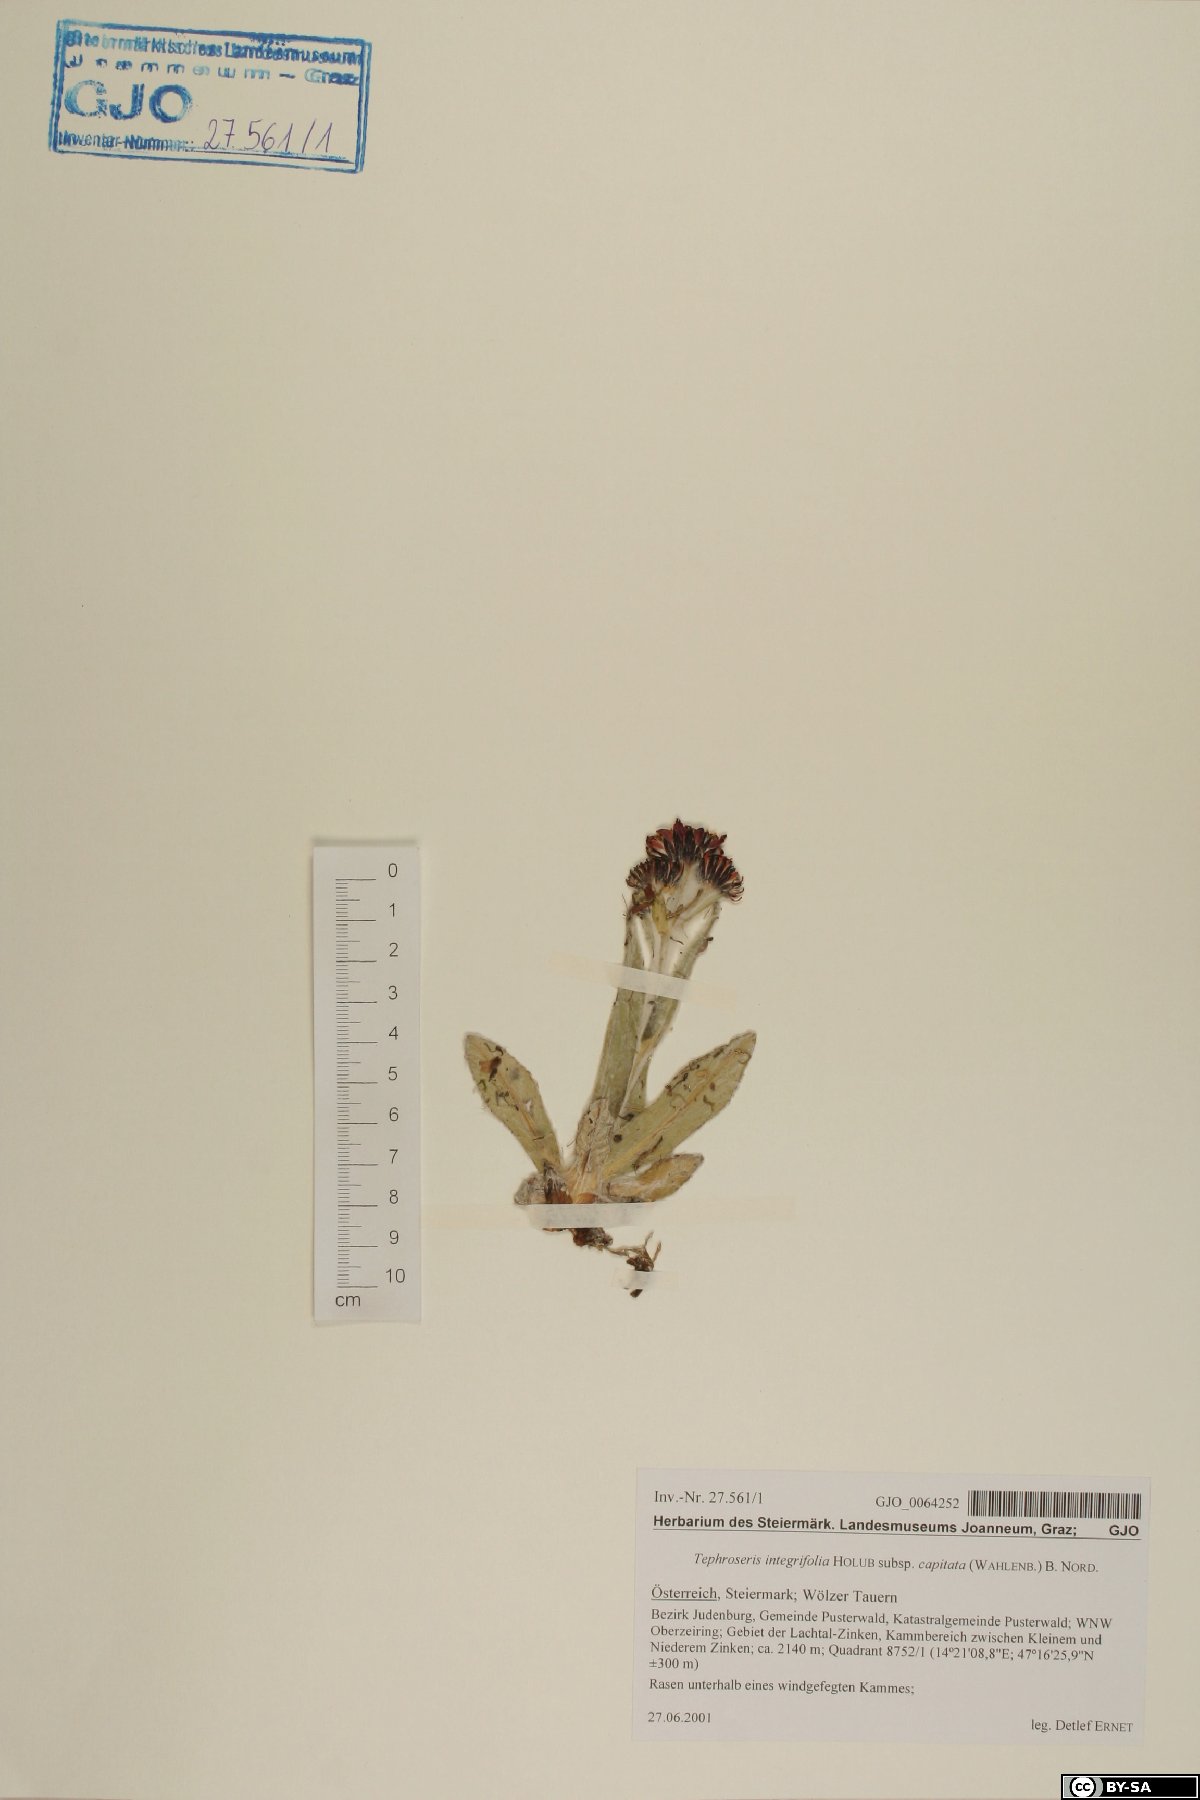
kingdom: Plantae
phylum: Tracheophyta
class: Magnoliopsida
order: Asterales
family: Asteraceae
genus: Tephroseris
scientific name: Tephroseris integrifolia
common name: Field fleawort
